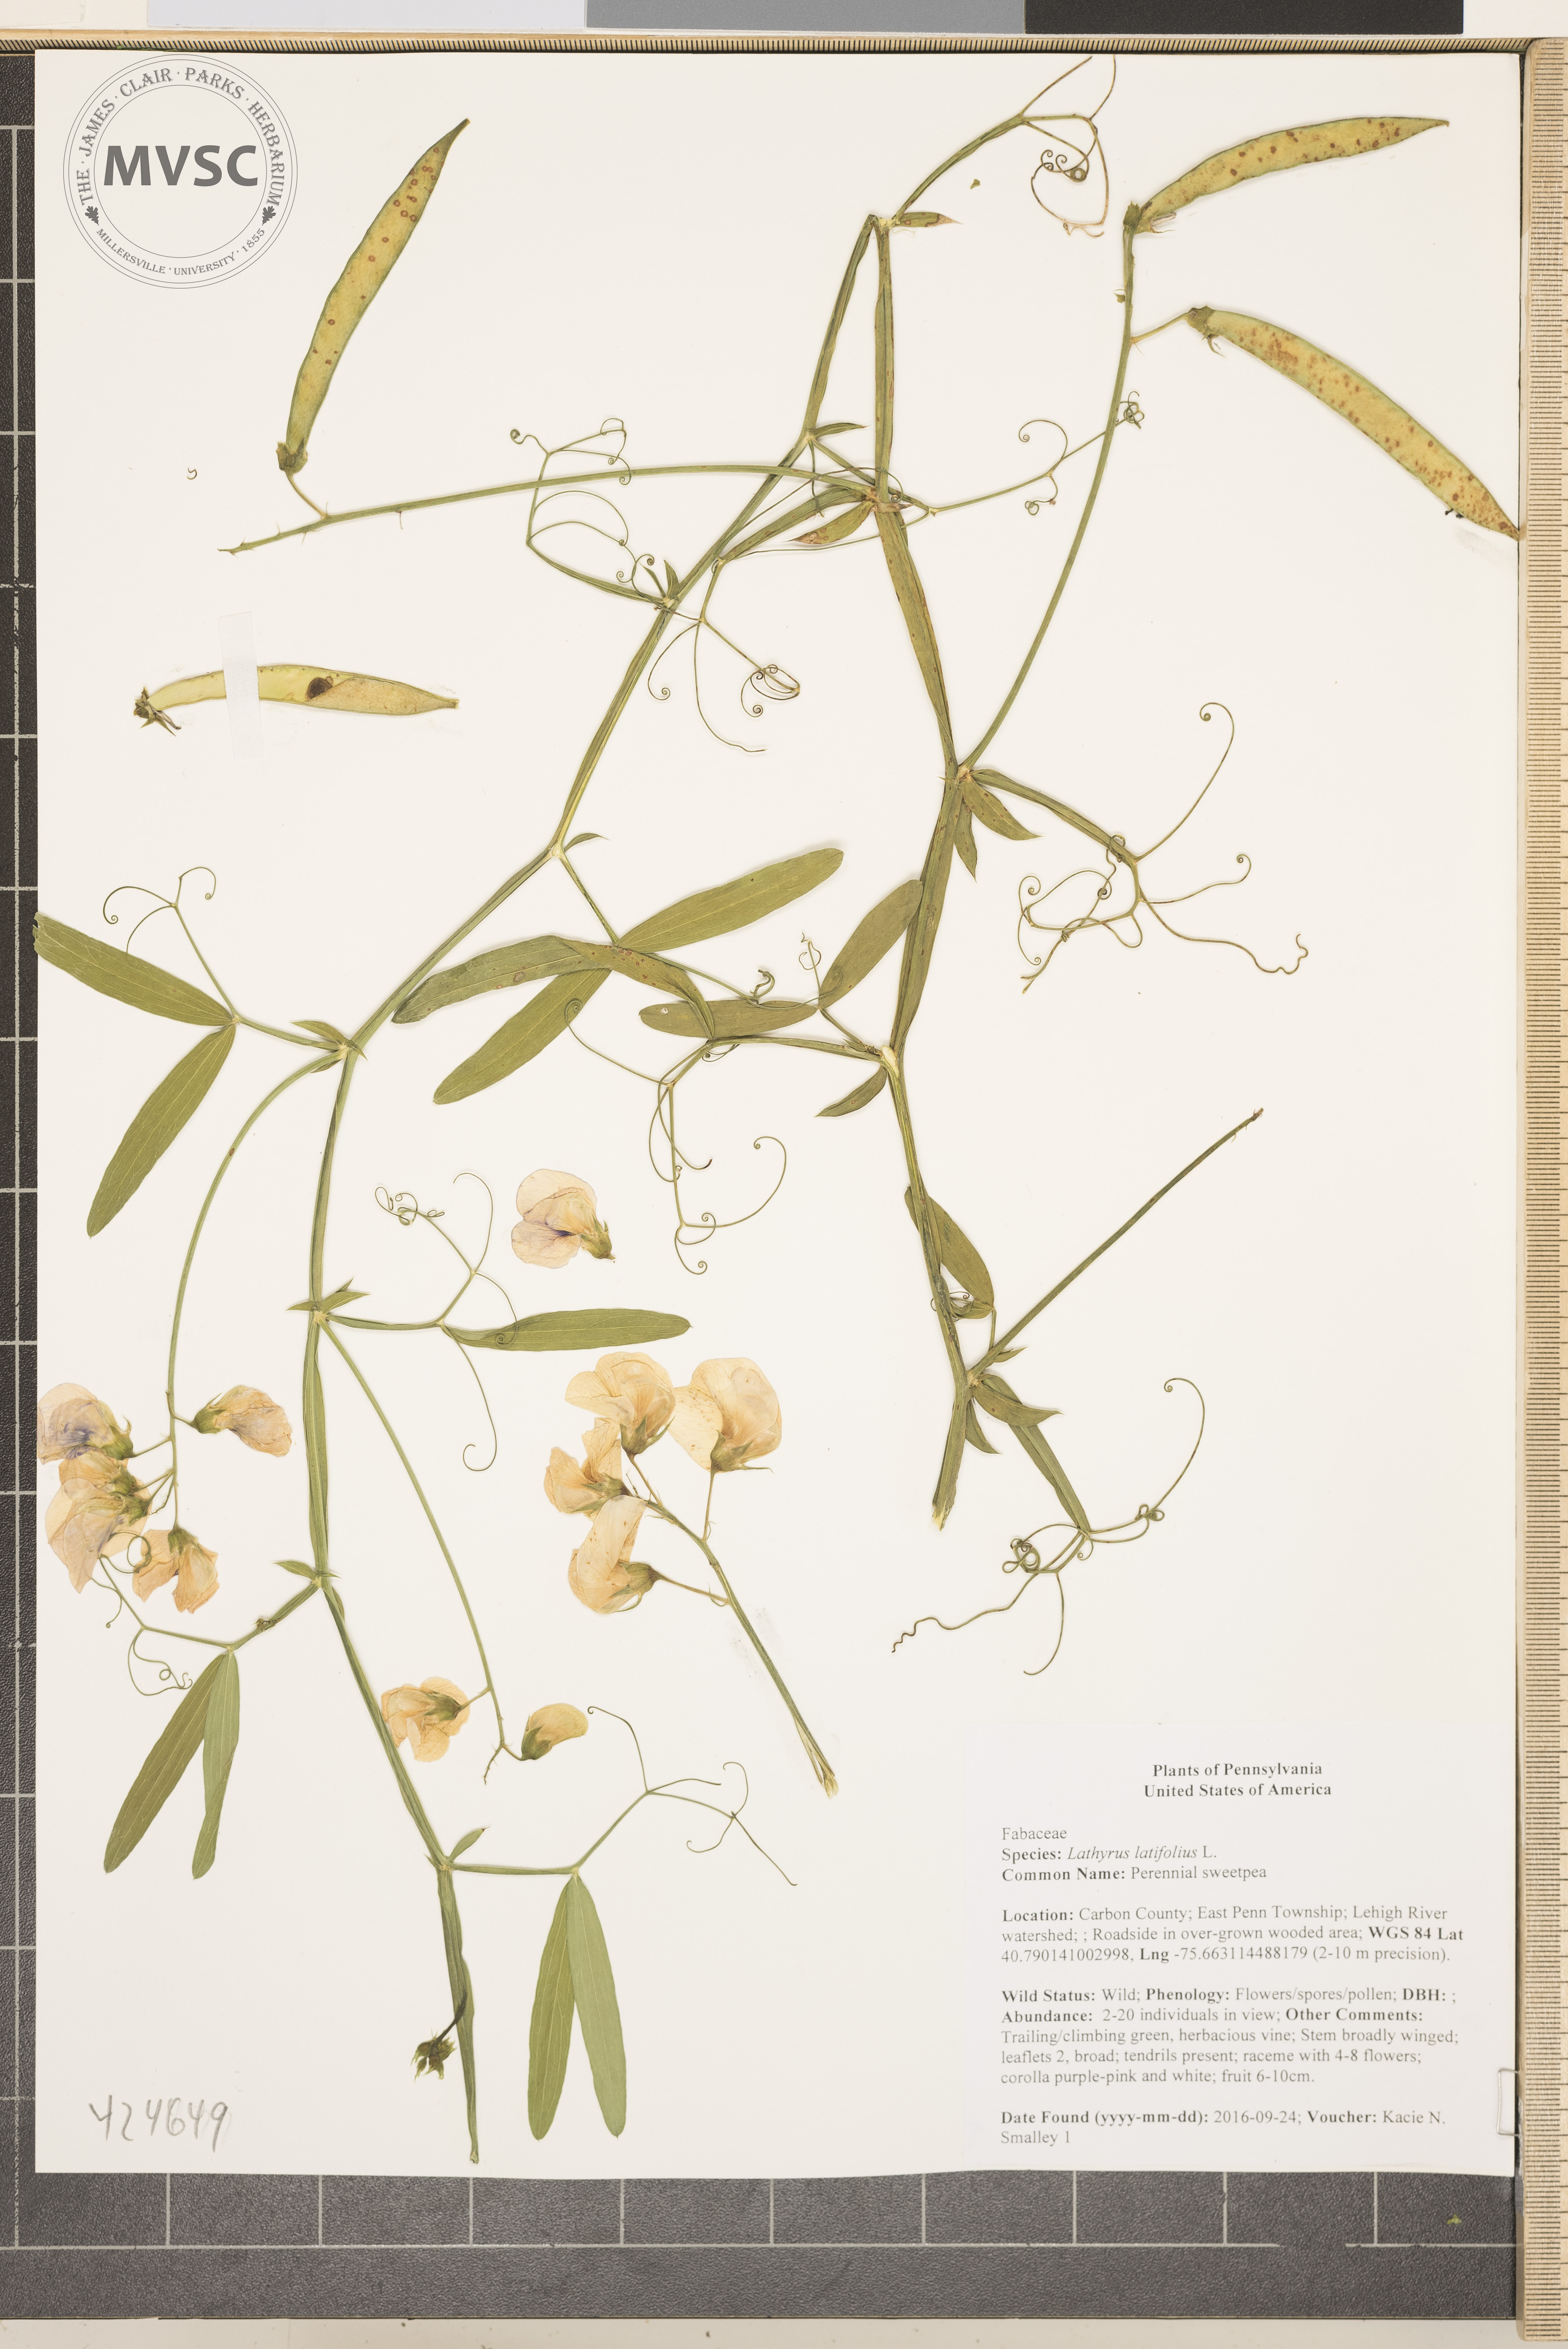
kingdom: Plantae
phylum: Tracheophyta
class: Magnoliopsida
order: Fabales
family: Fabaceae
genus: Lathyrus
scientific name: Lathyrus latifolius
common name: Perennial sweetpea
